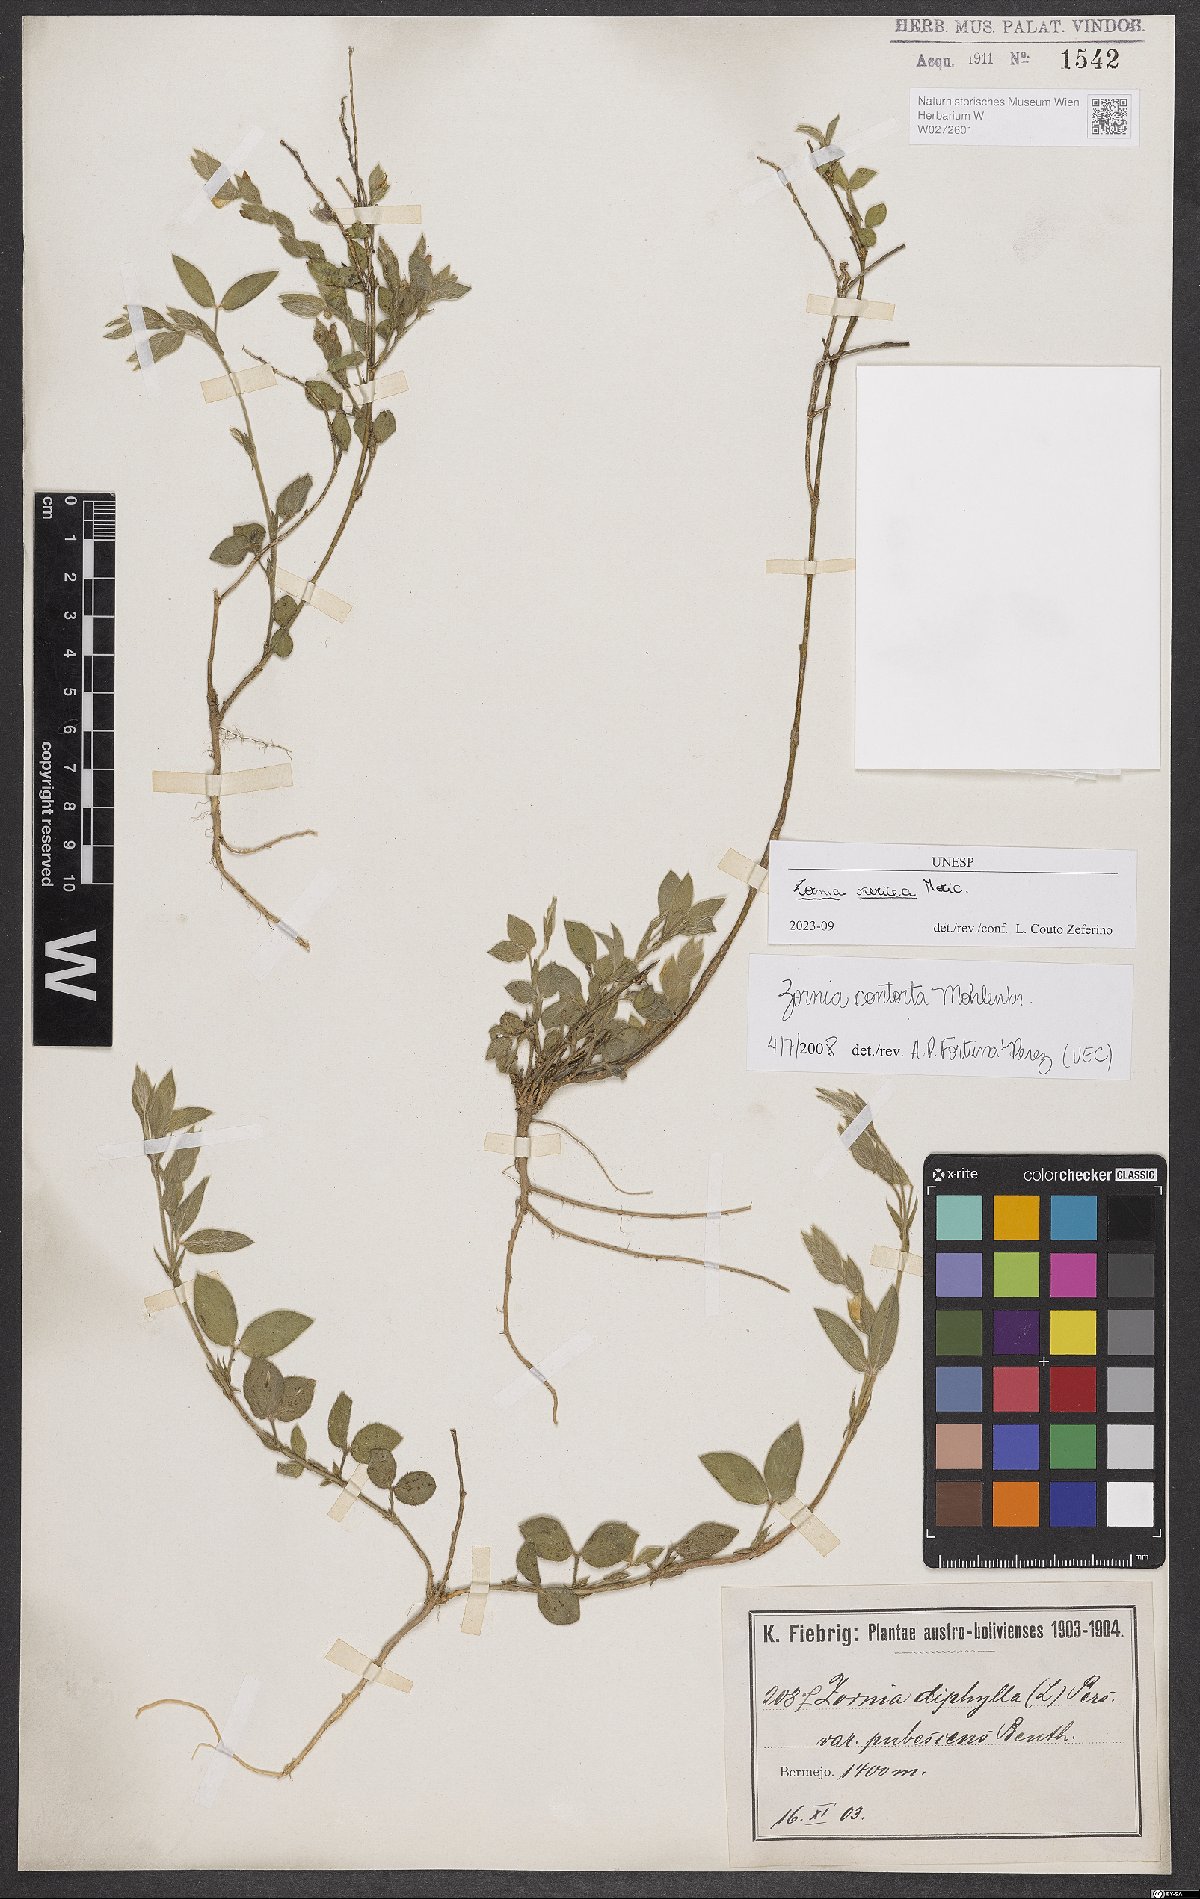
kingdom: Plantae
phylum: Tracheophyta
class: Magnoliopsida
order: Fabales
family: Fabaceae
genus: Zornia
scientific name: Zornia sericea
